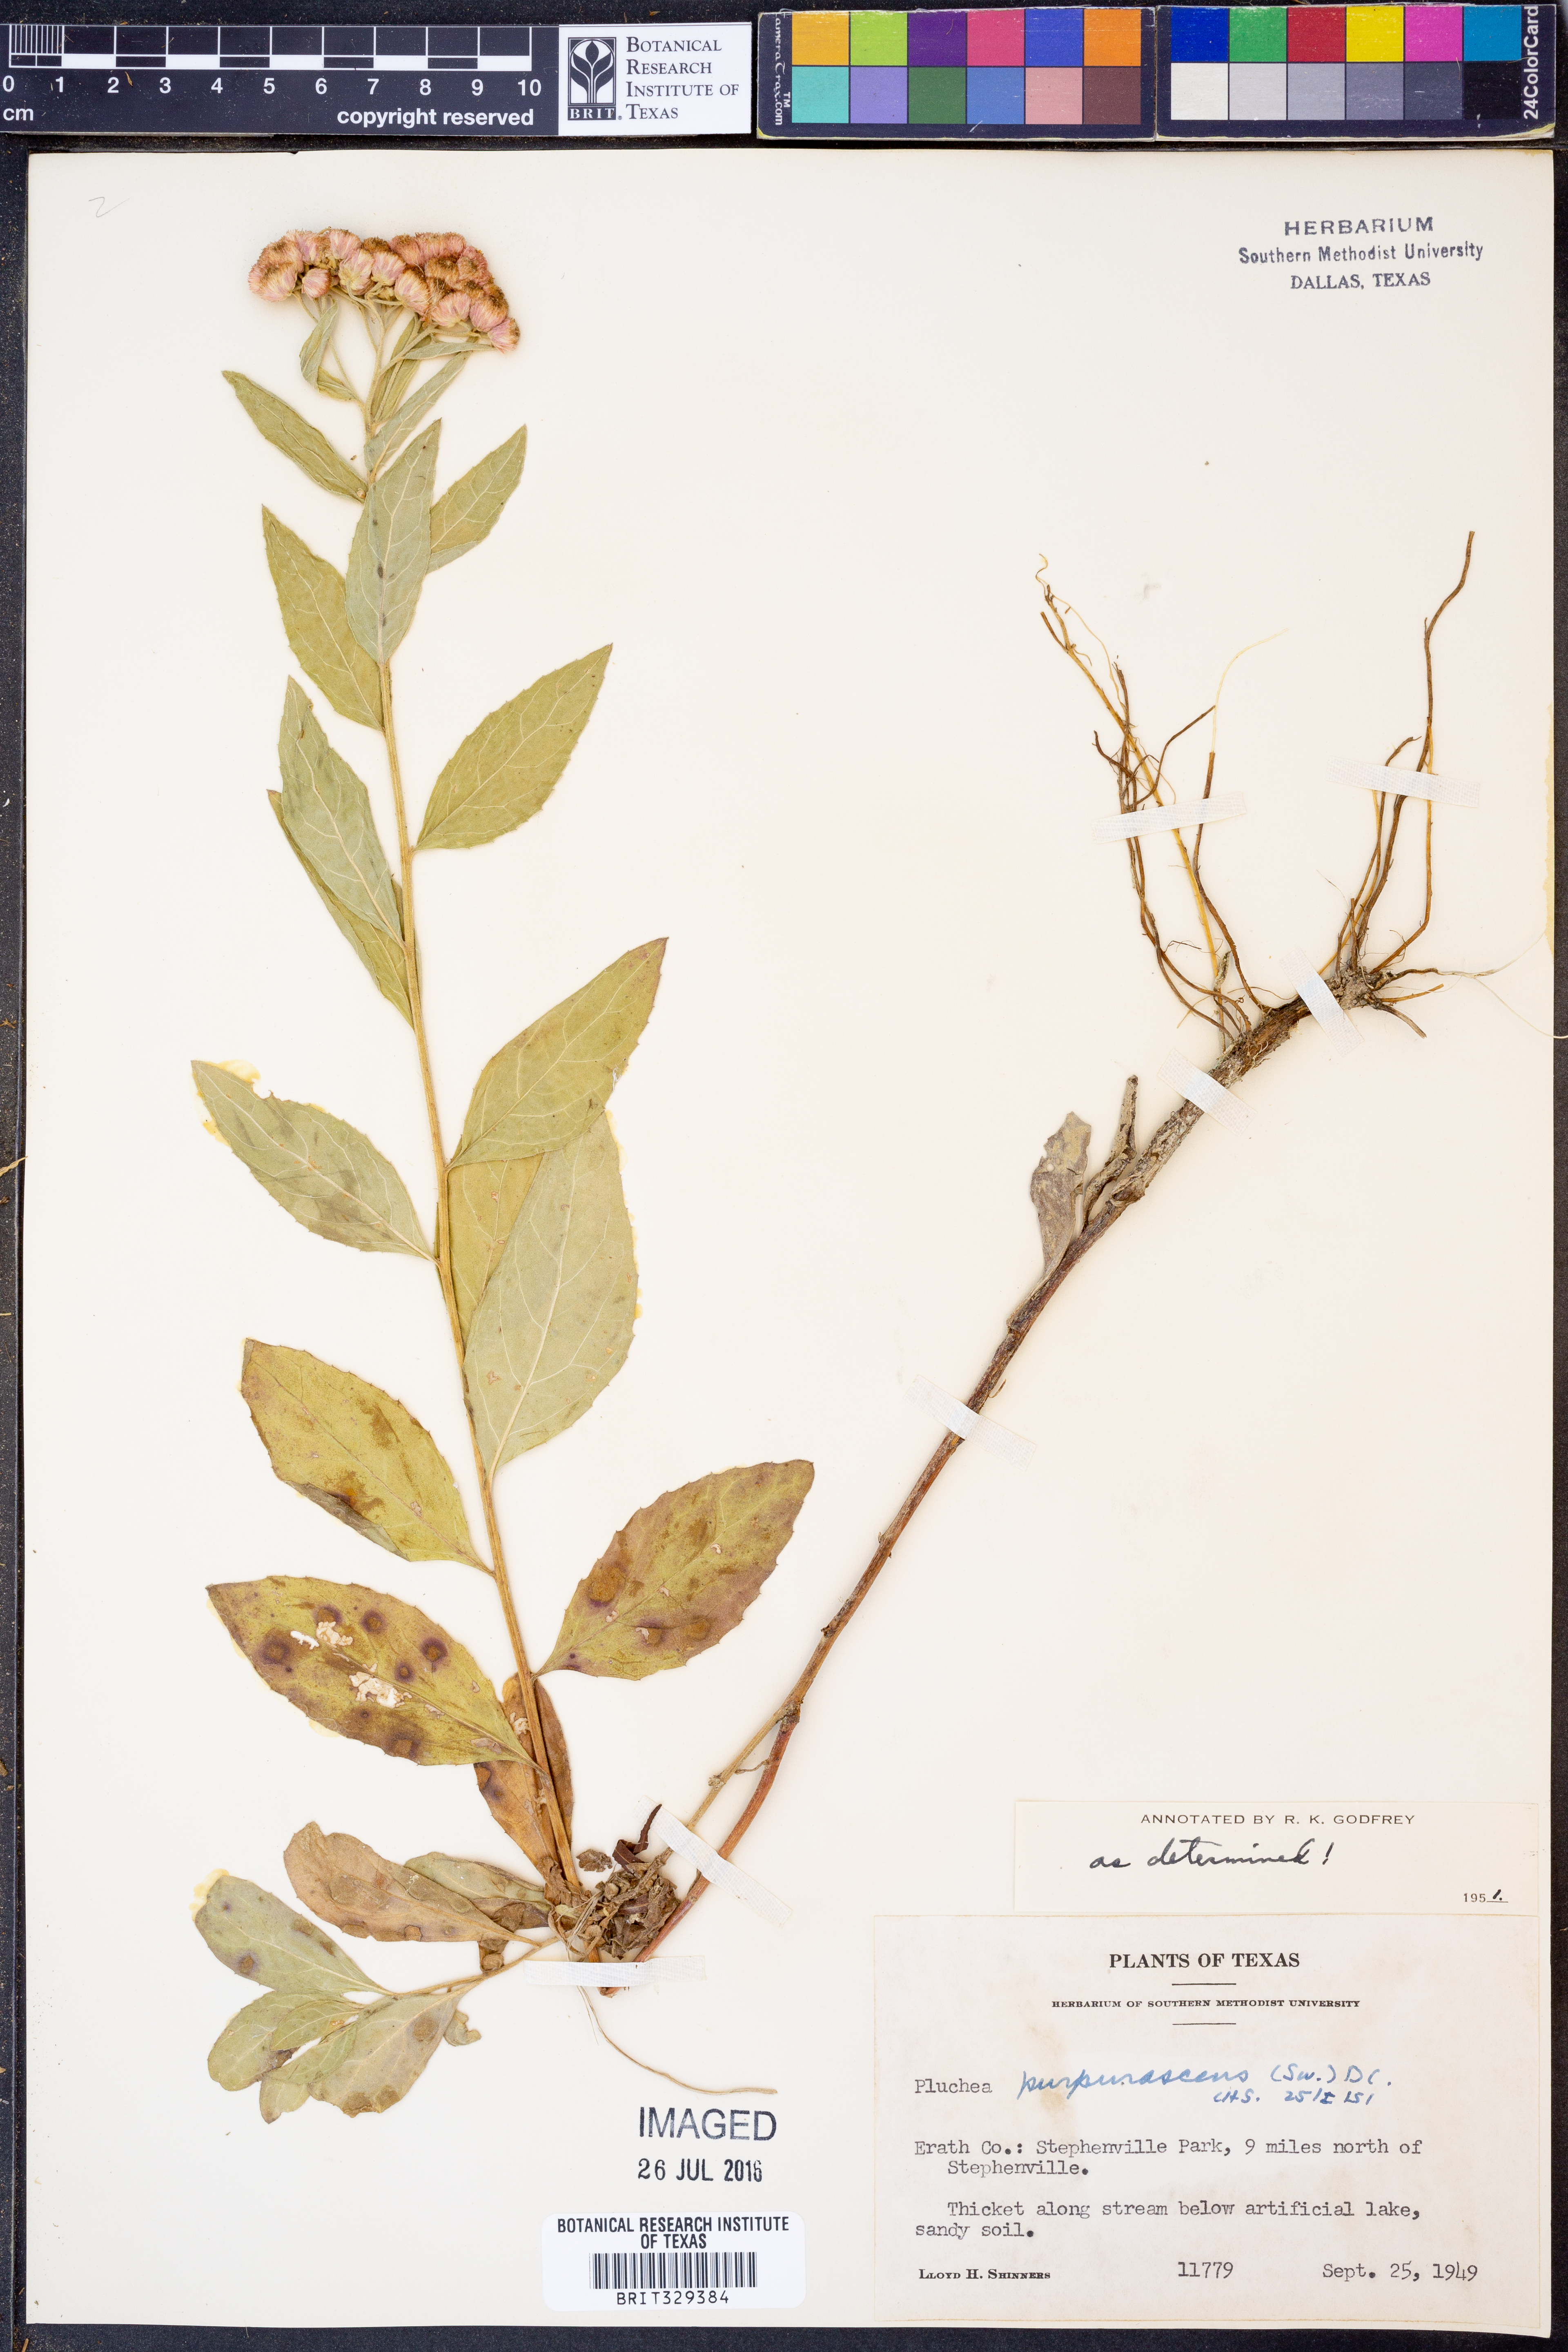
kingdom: Plantae
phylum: Tracheophyta
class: Magnoliopsida
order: Asterales
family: Asteraceae
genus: Pluchea
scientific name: Pluchea odorata
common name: Saltmarsh fleabane
